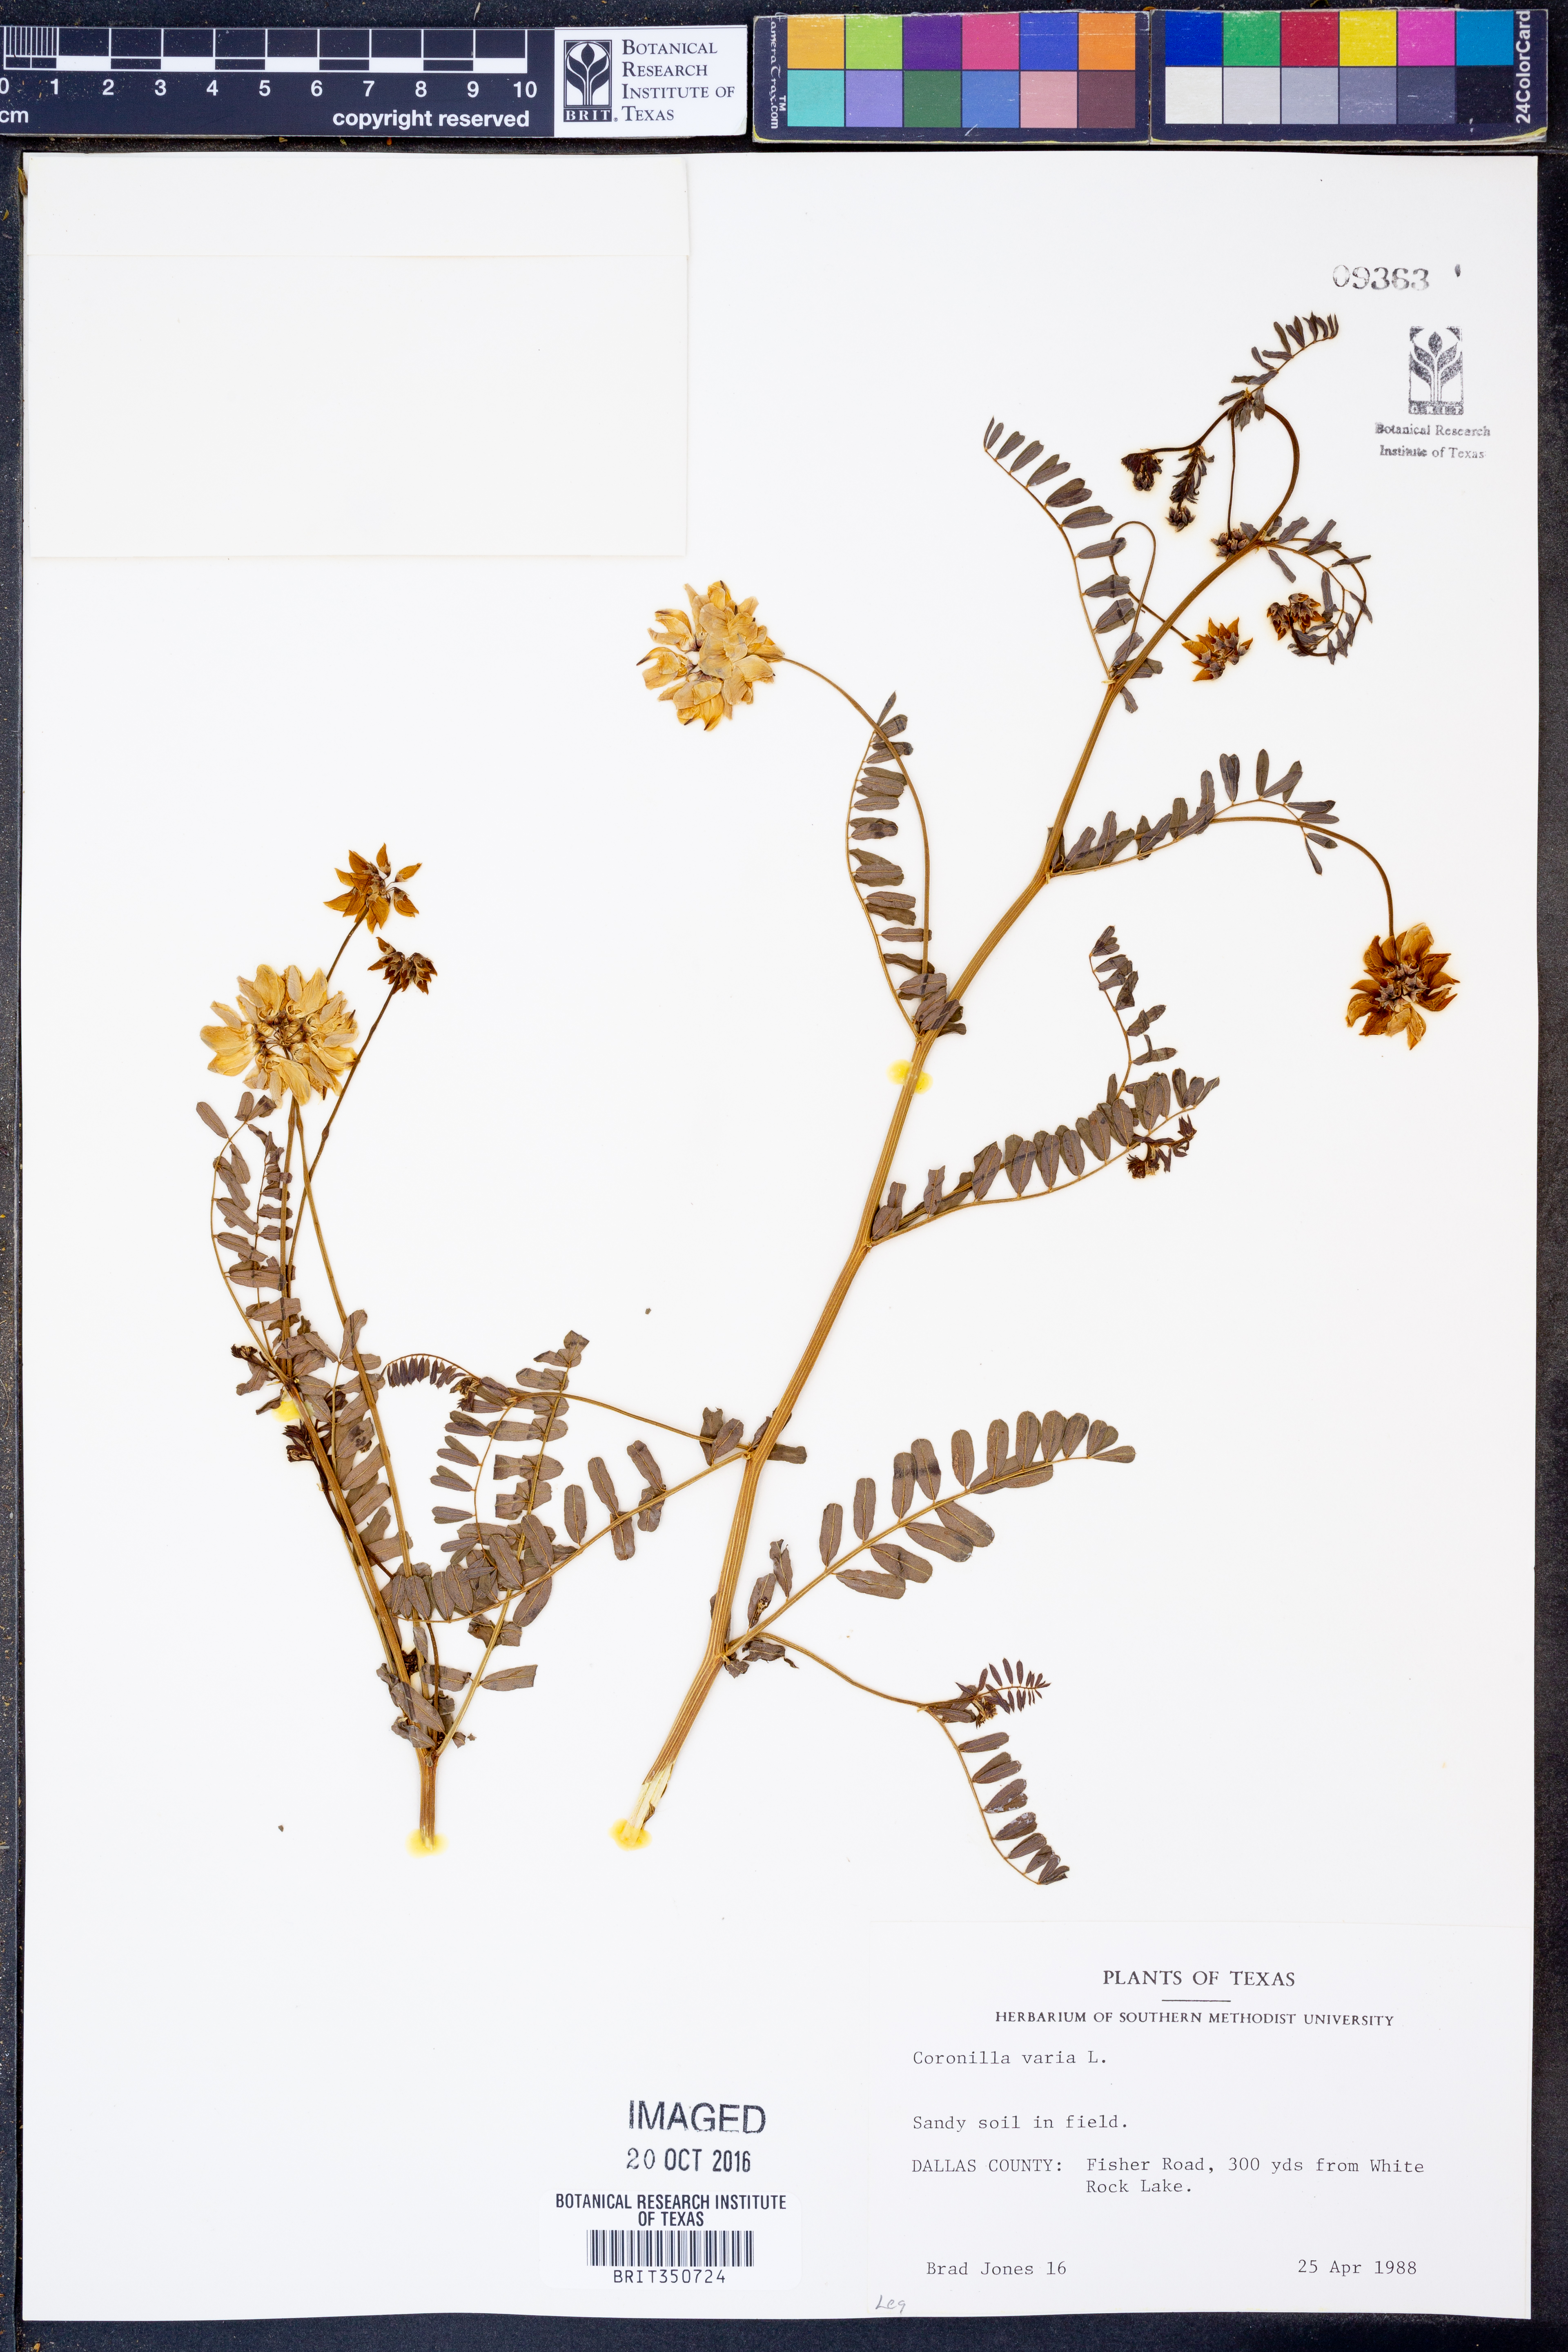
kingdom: Plantae
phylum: Tracheophyta
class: Magnoliopsida
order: Fabales
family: Fabaceae
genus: Coronilla
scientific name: Coronilla varia
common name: Crownvetch
